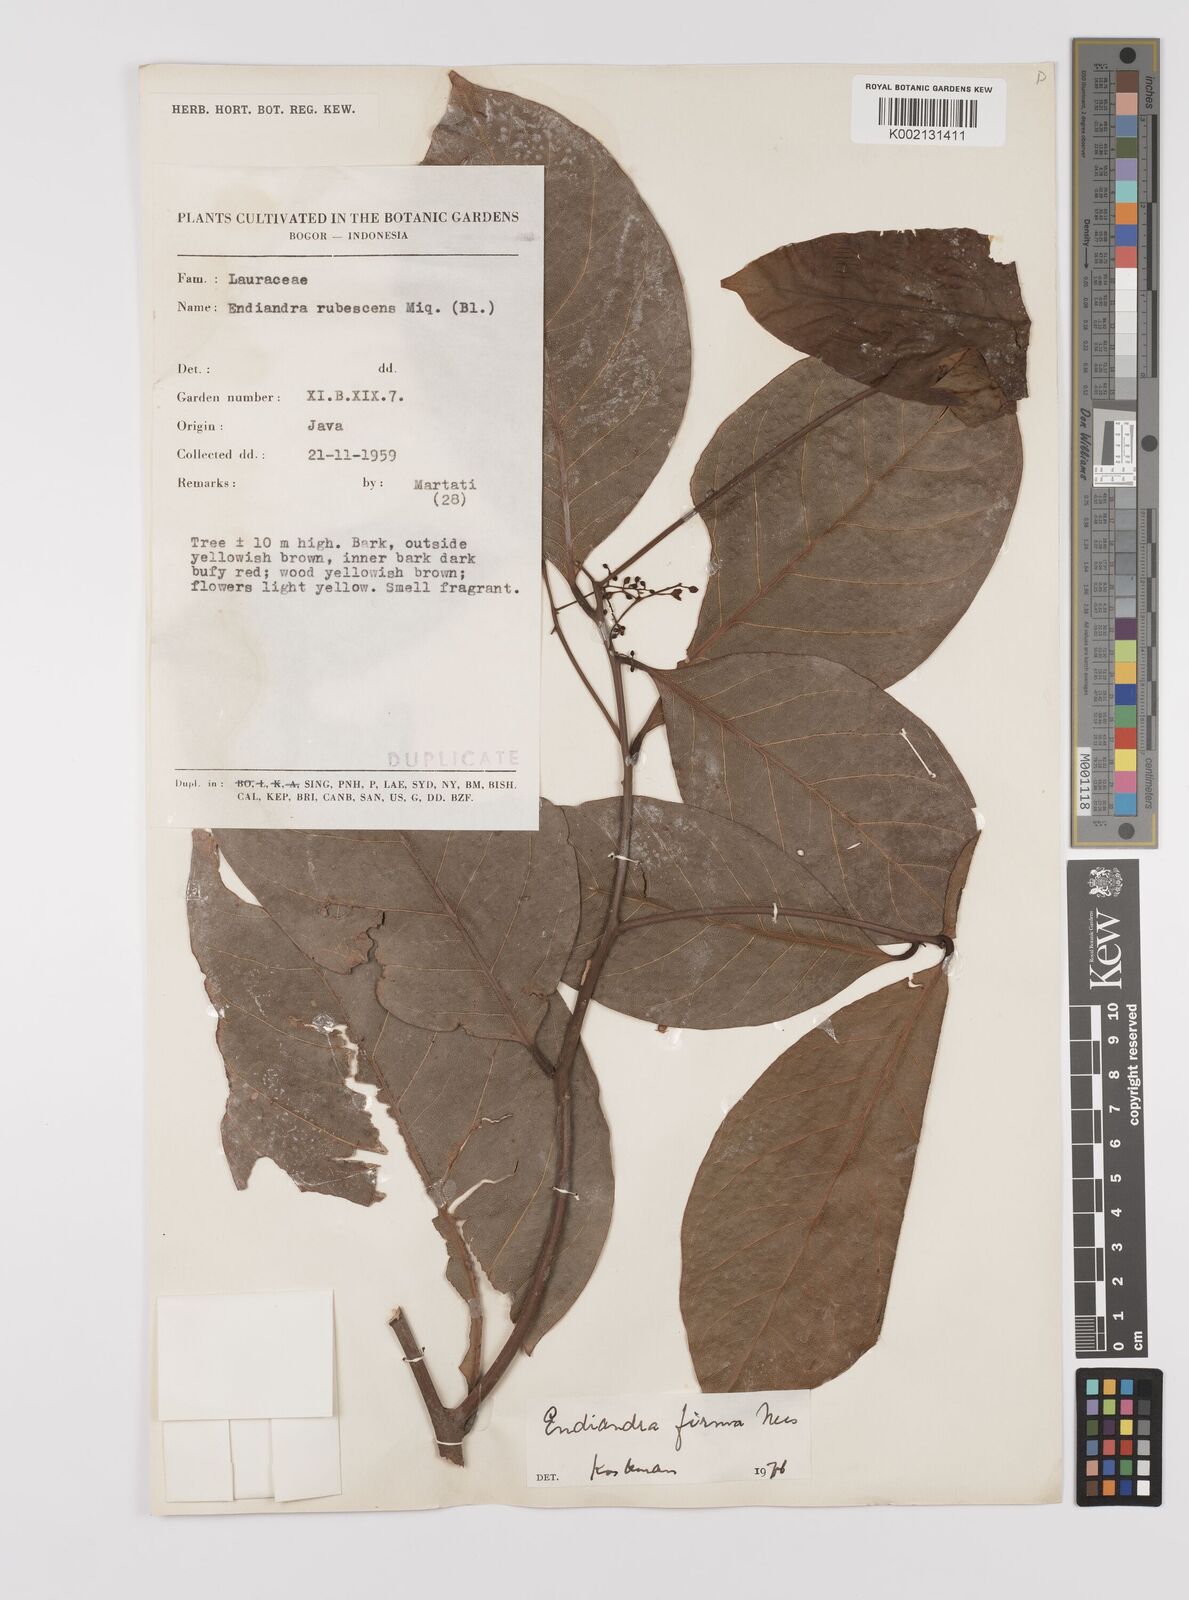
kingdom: Plantae
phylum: Tracheophyta
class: Magnoliopsida
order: Laurales
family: Lauraceae
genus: Endiandra
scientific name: Endiandra firma
